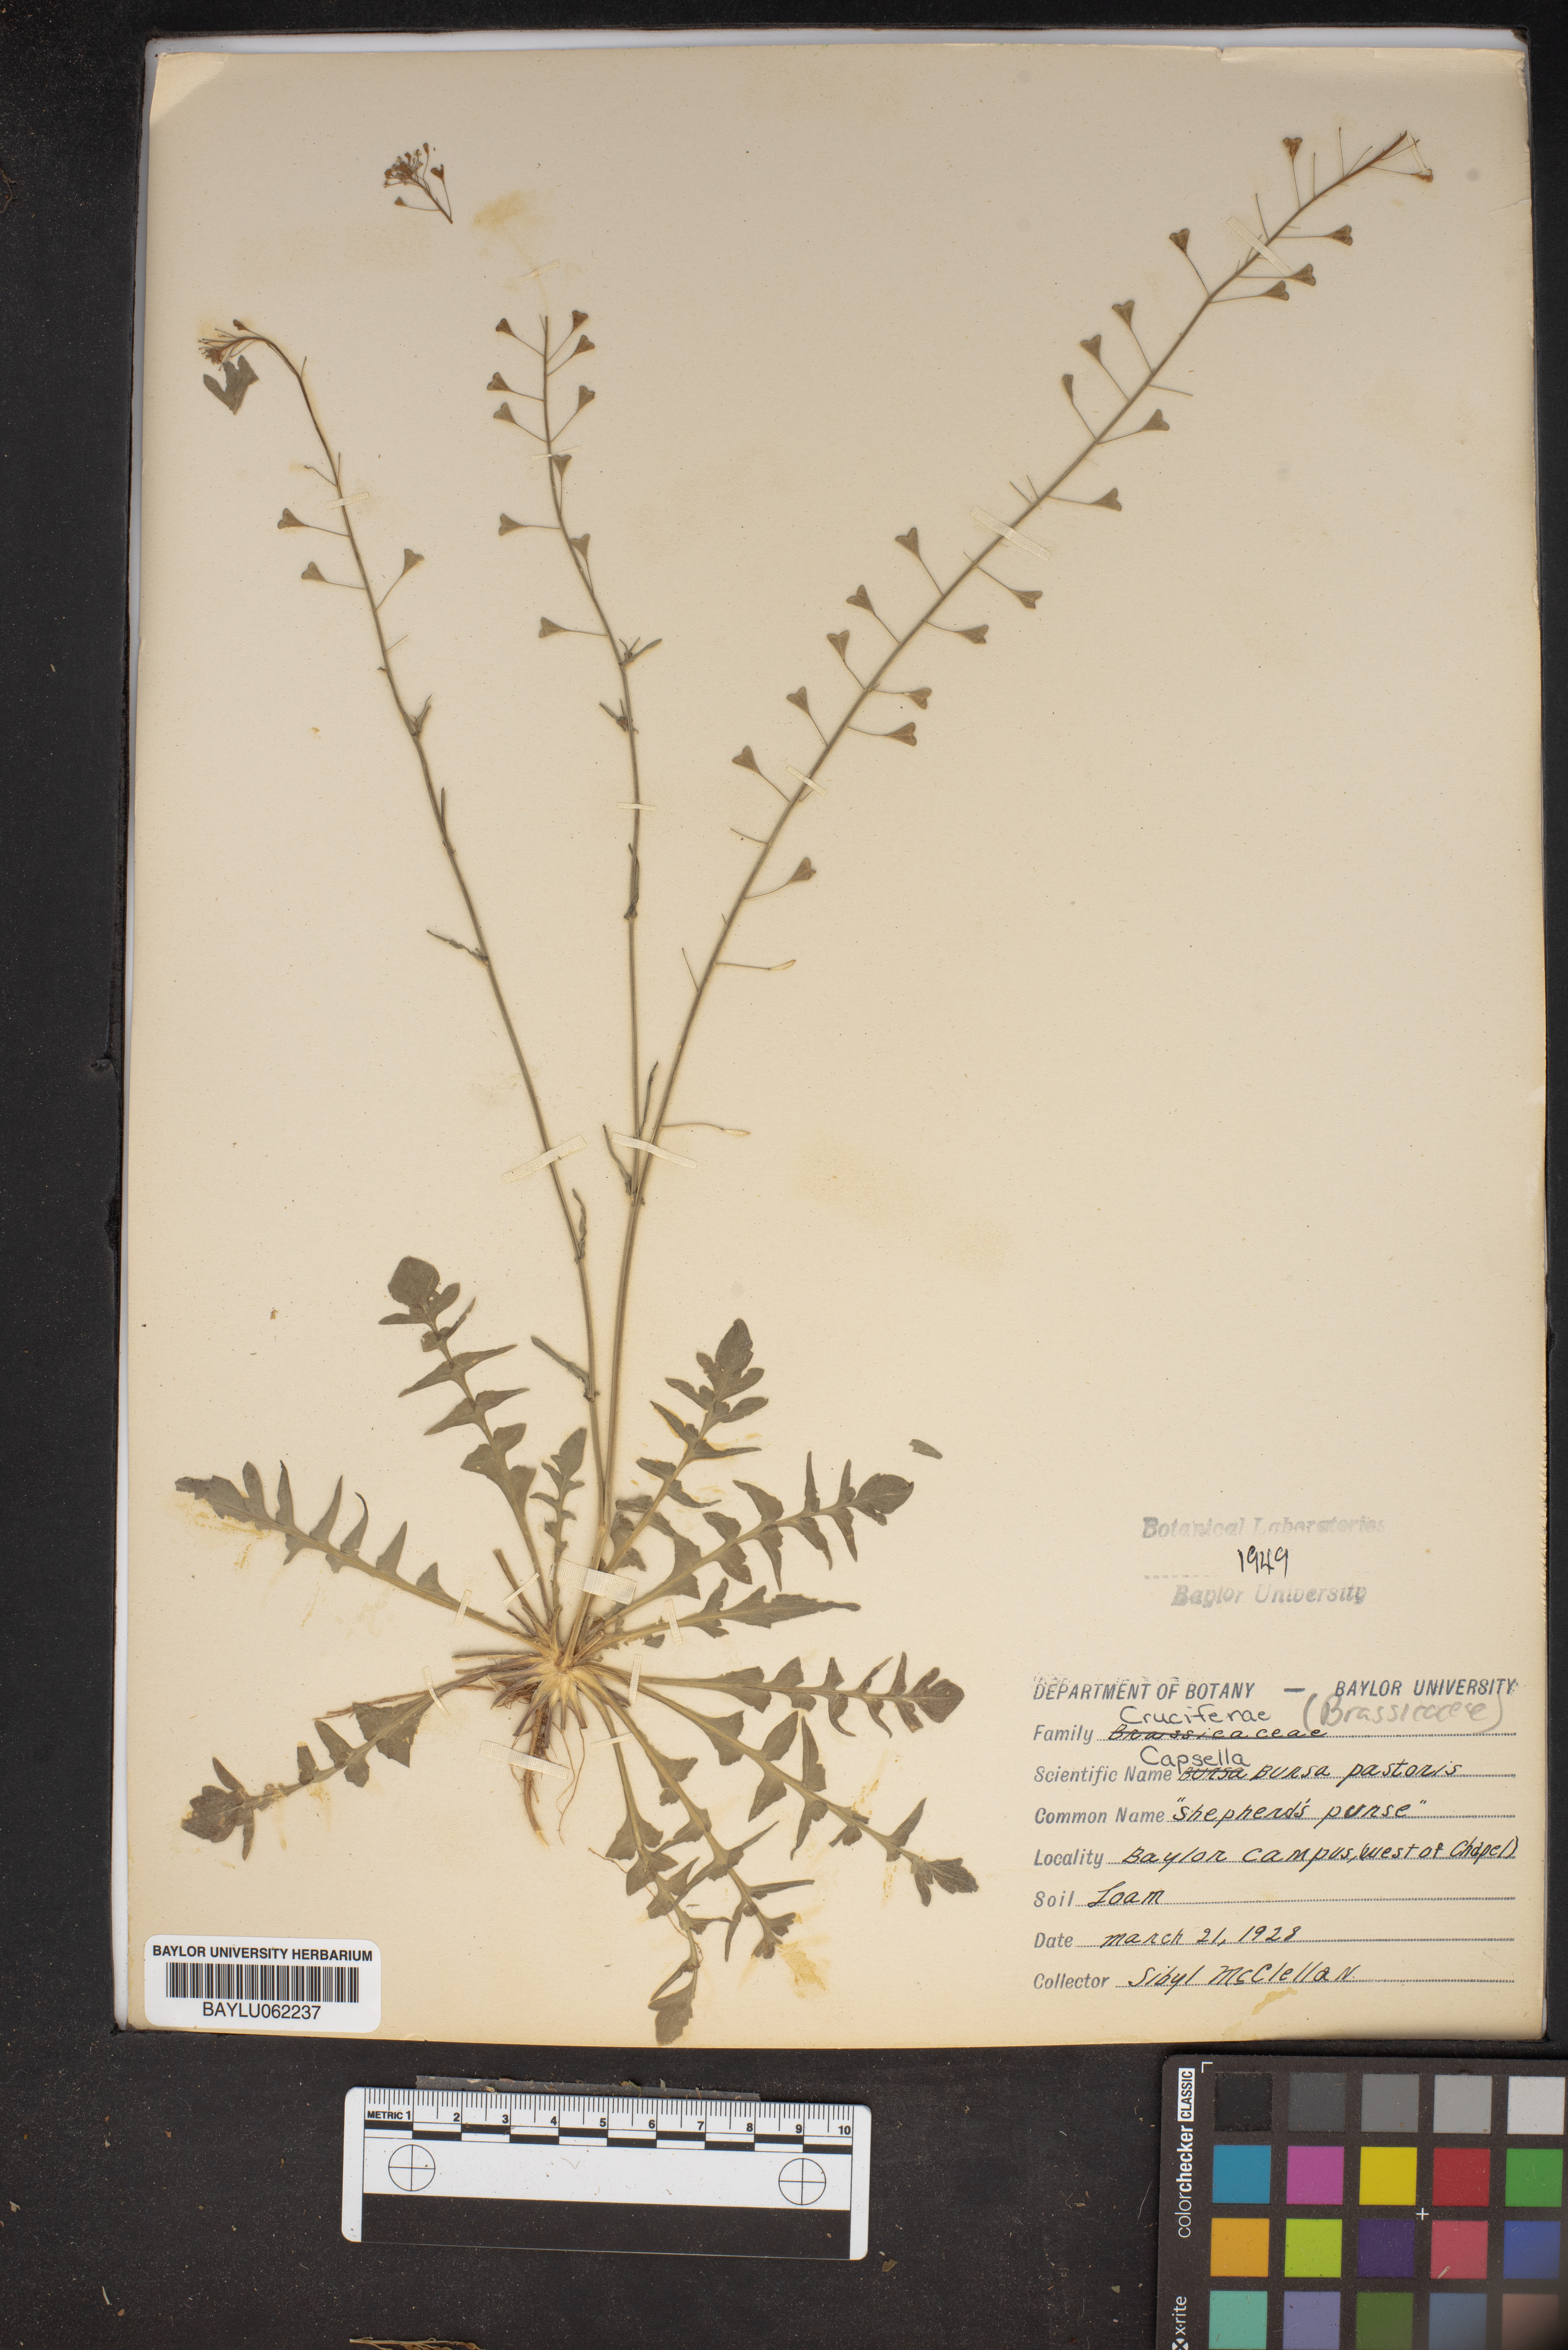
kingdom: Plantae
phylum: Tracheophyta
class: Magnoliopsida
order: Brassicales
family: Brassicaceae
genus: Capsella
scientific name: Capsella bursa-pastoris
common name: Shepherd's purse
